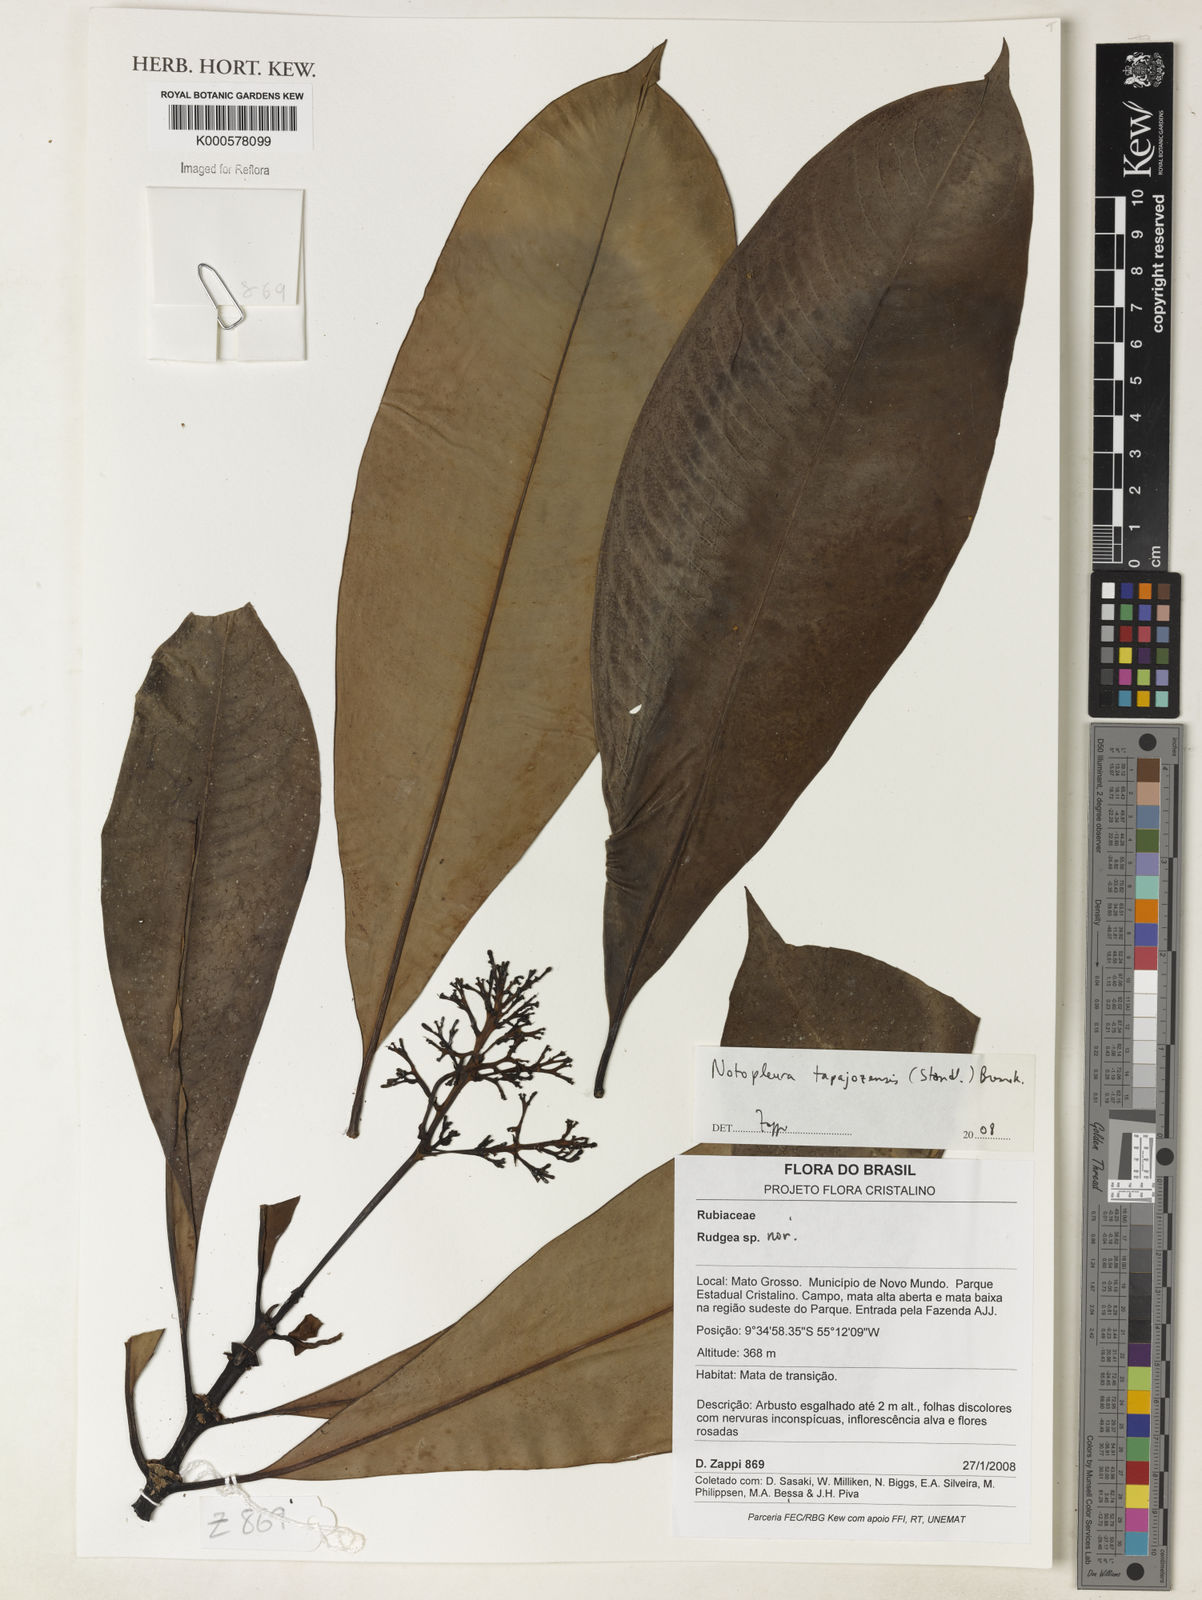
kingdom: Plantae
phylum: Tracheophyta
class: Magnoliopsida
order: Gentianales
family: Rubiaceae
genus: Notopleura
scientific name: Notopleura tapajozensis
